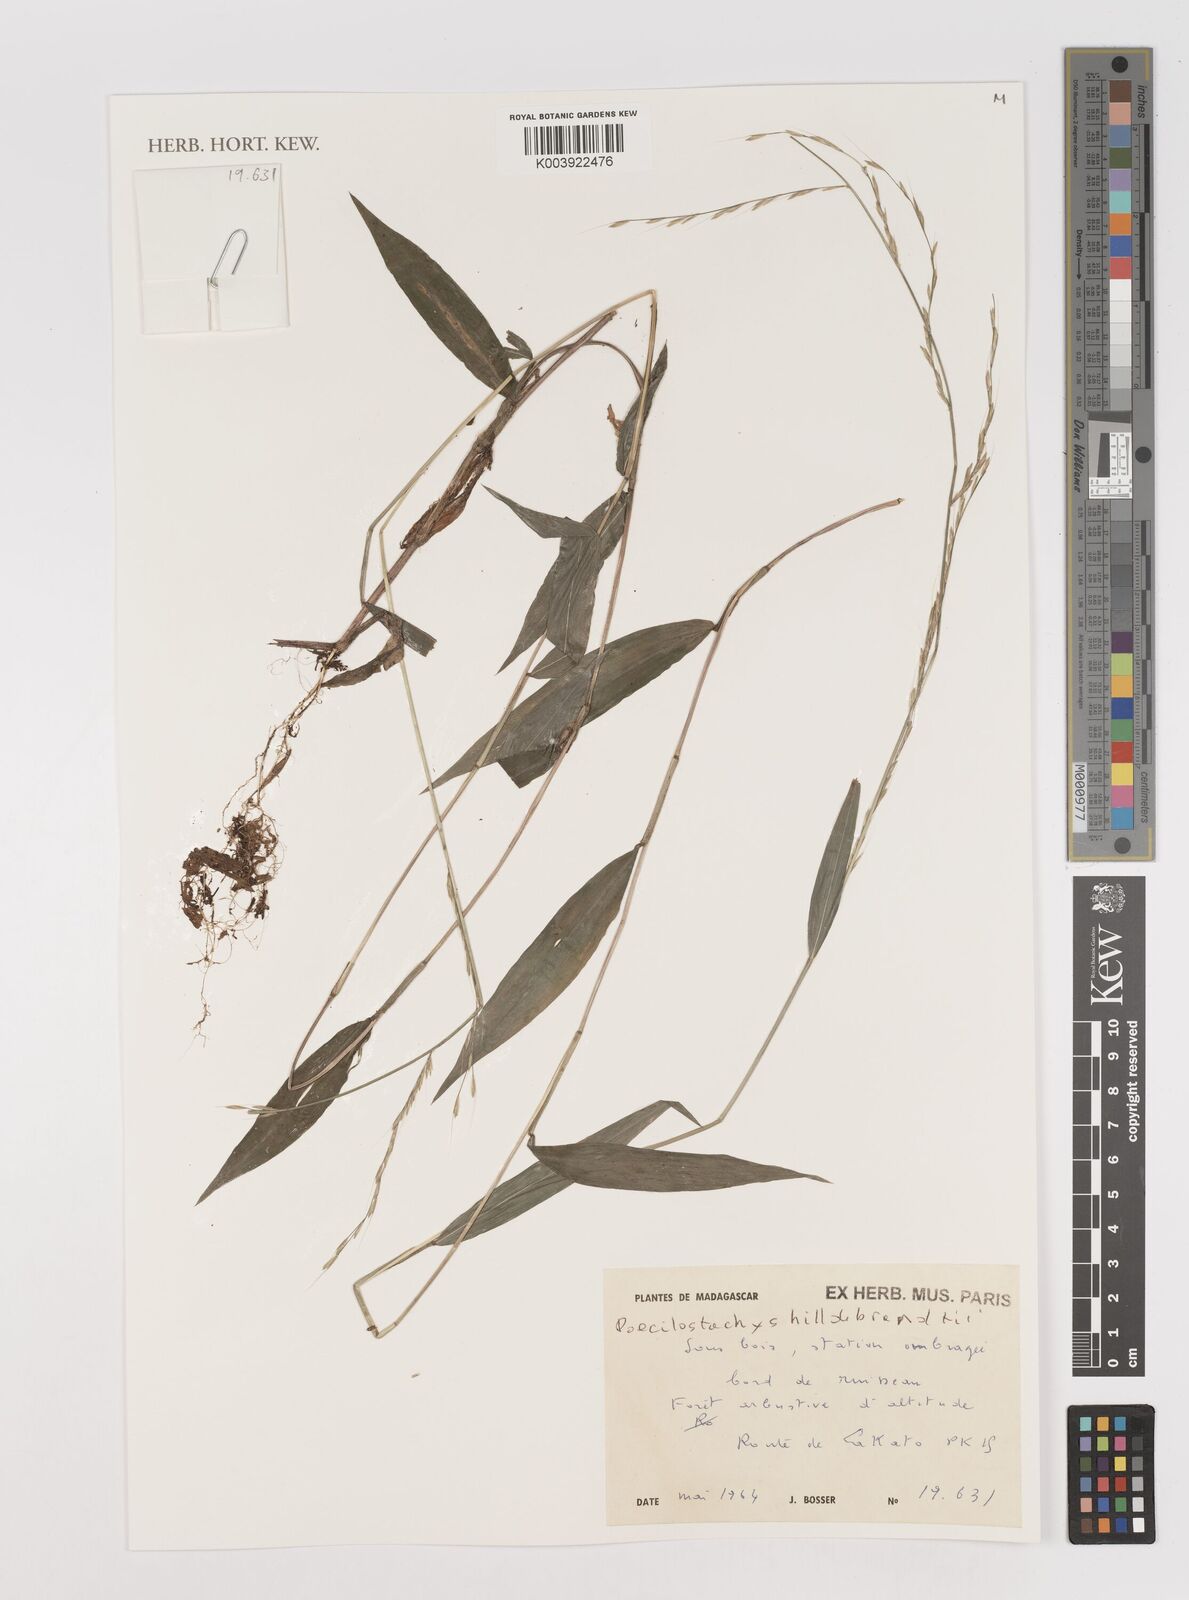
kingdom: Plantae
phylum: Tracheophyta
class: Liliopsida
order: Poales
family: Poaceae
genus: Poecilostachys
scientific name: Poecilostachys hildebrandtii
